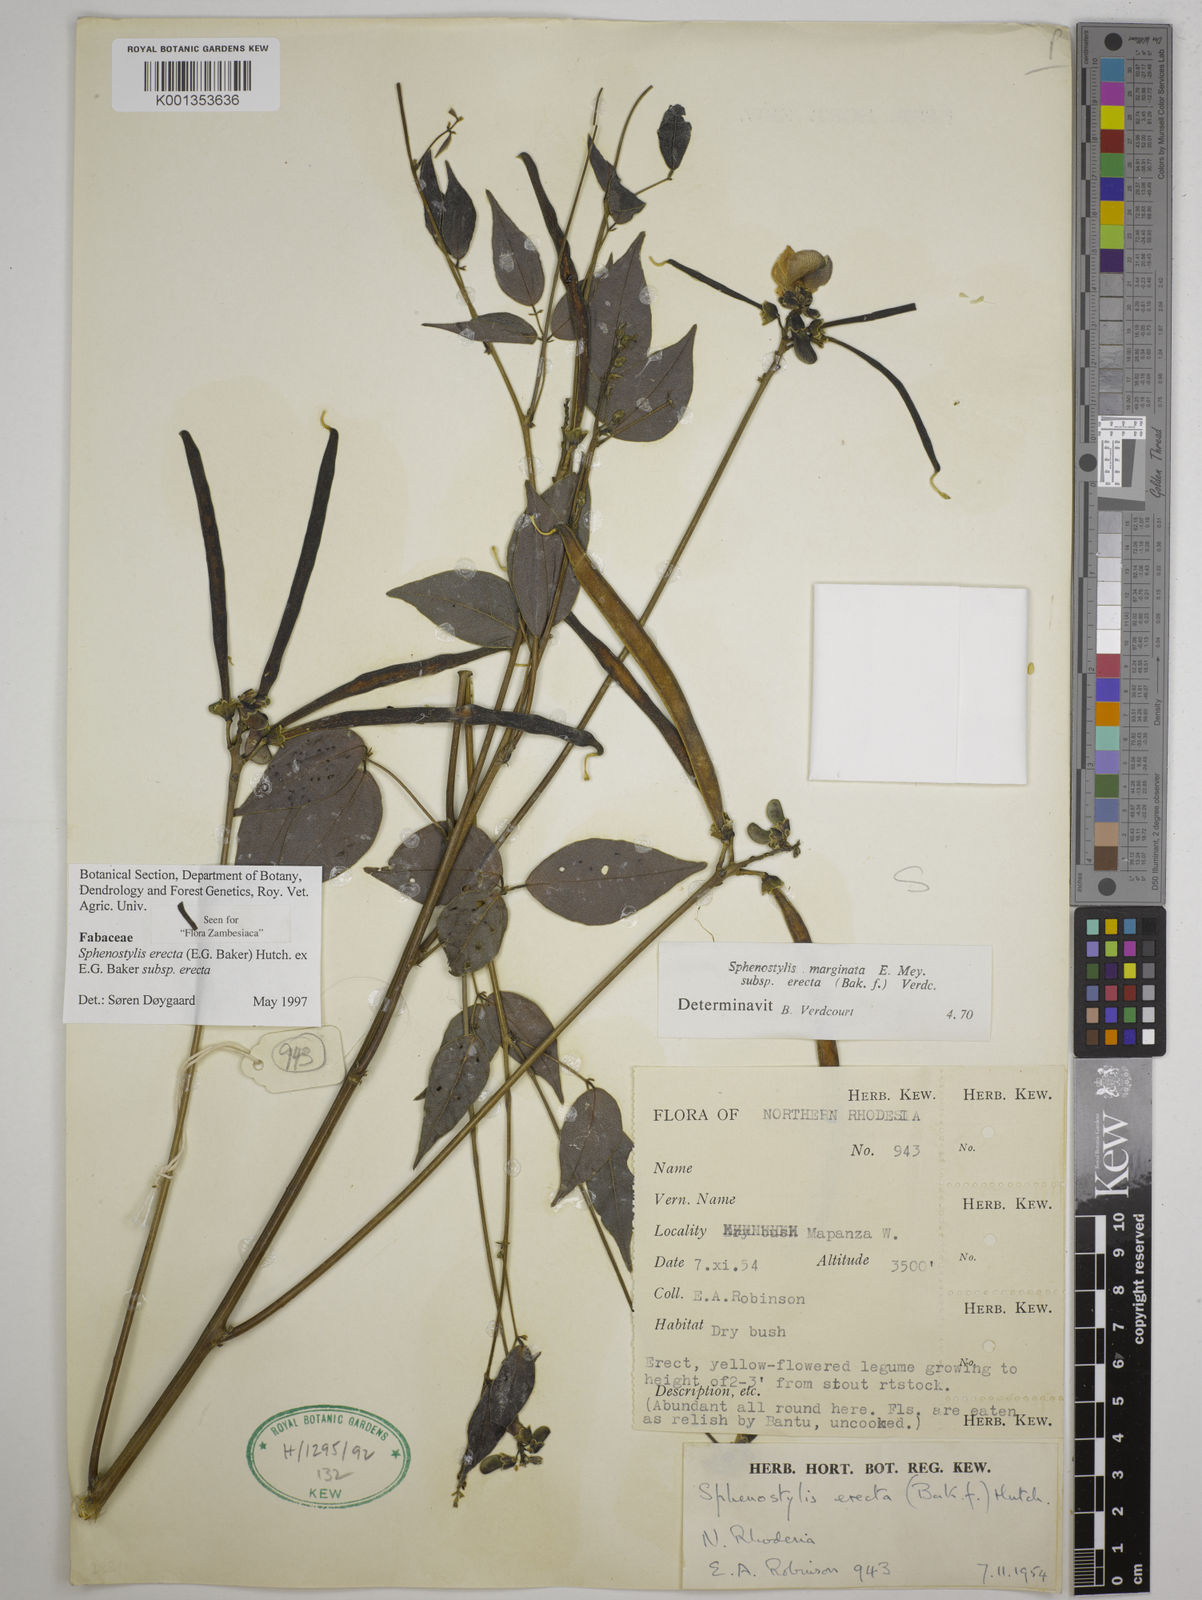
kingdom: Plantae
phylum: Tracheophyta
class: Magnoliopsida
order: Fabales
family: Fabaceae
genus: Sphenostylis
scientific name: Sphenostylis erecta
